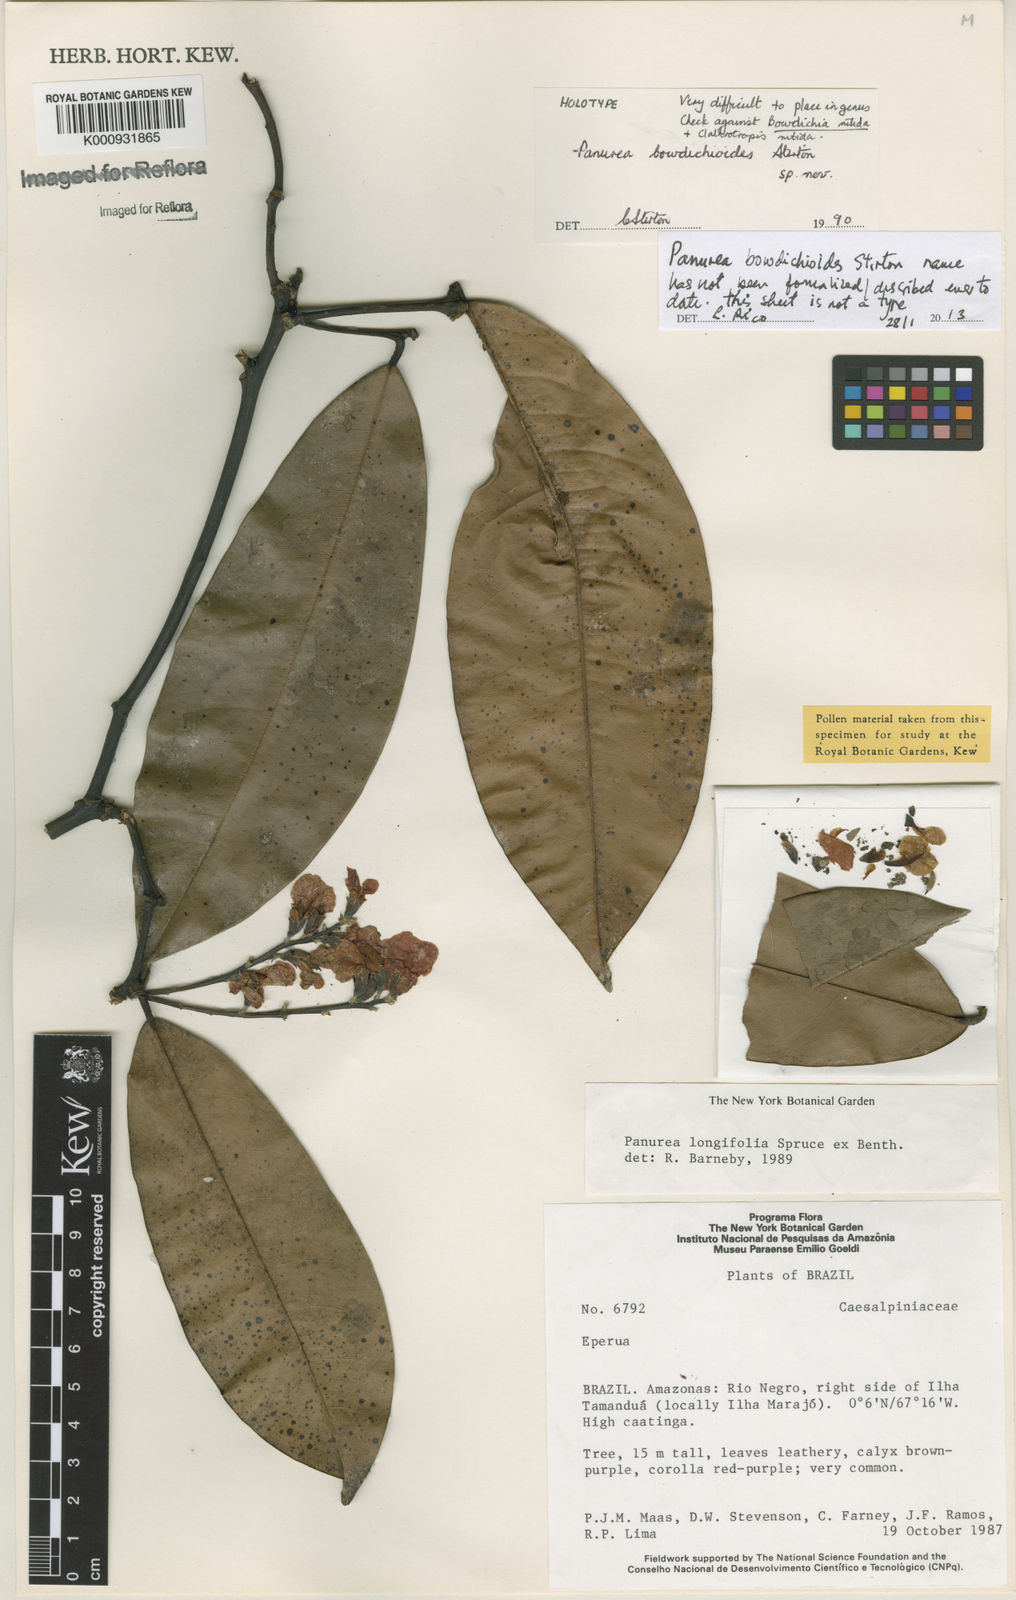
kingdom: Plantae
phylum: Tracheophyta
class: Magnoliopsida
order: Fabales
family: Fabaceae
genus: Panurea
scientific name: Panurea bowdichioides
